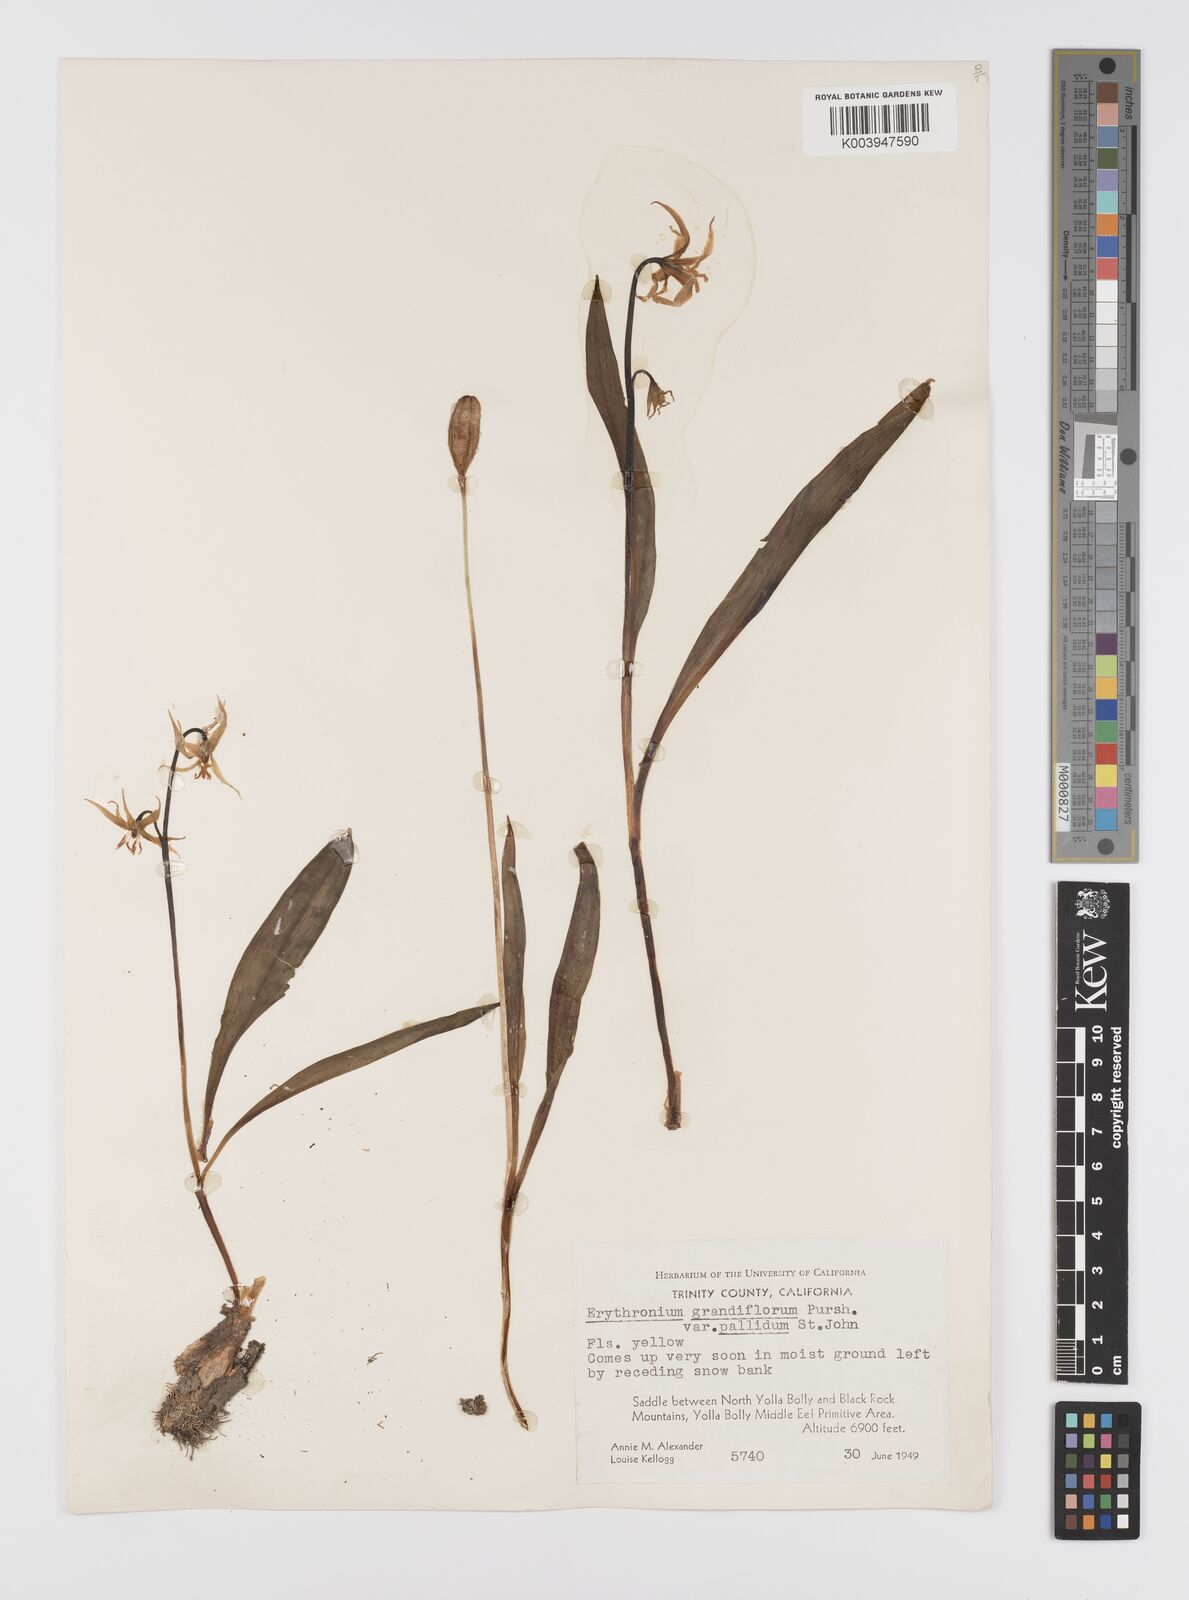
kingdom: Plantae
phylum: Tracheophyta
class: Liliopsida
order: Liliales
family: Liliaceae
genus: Erythronium
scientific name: Erythronium grandiflorum
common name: Avalanche-lily
